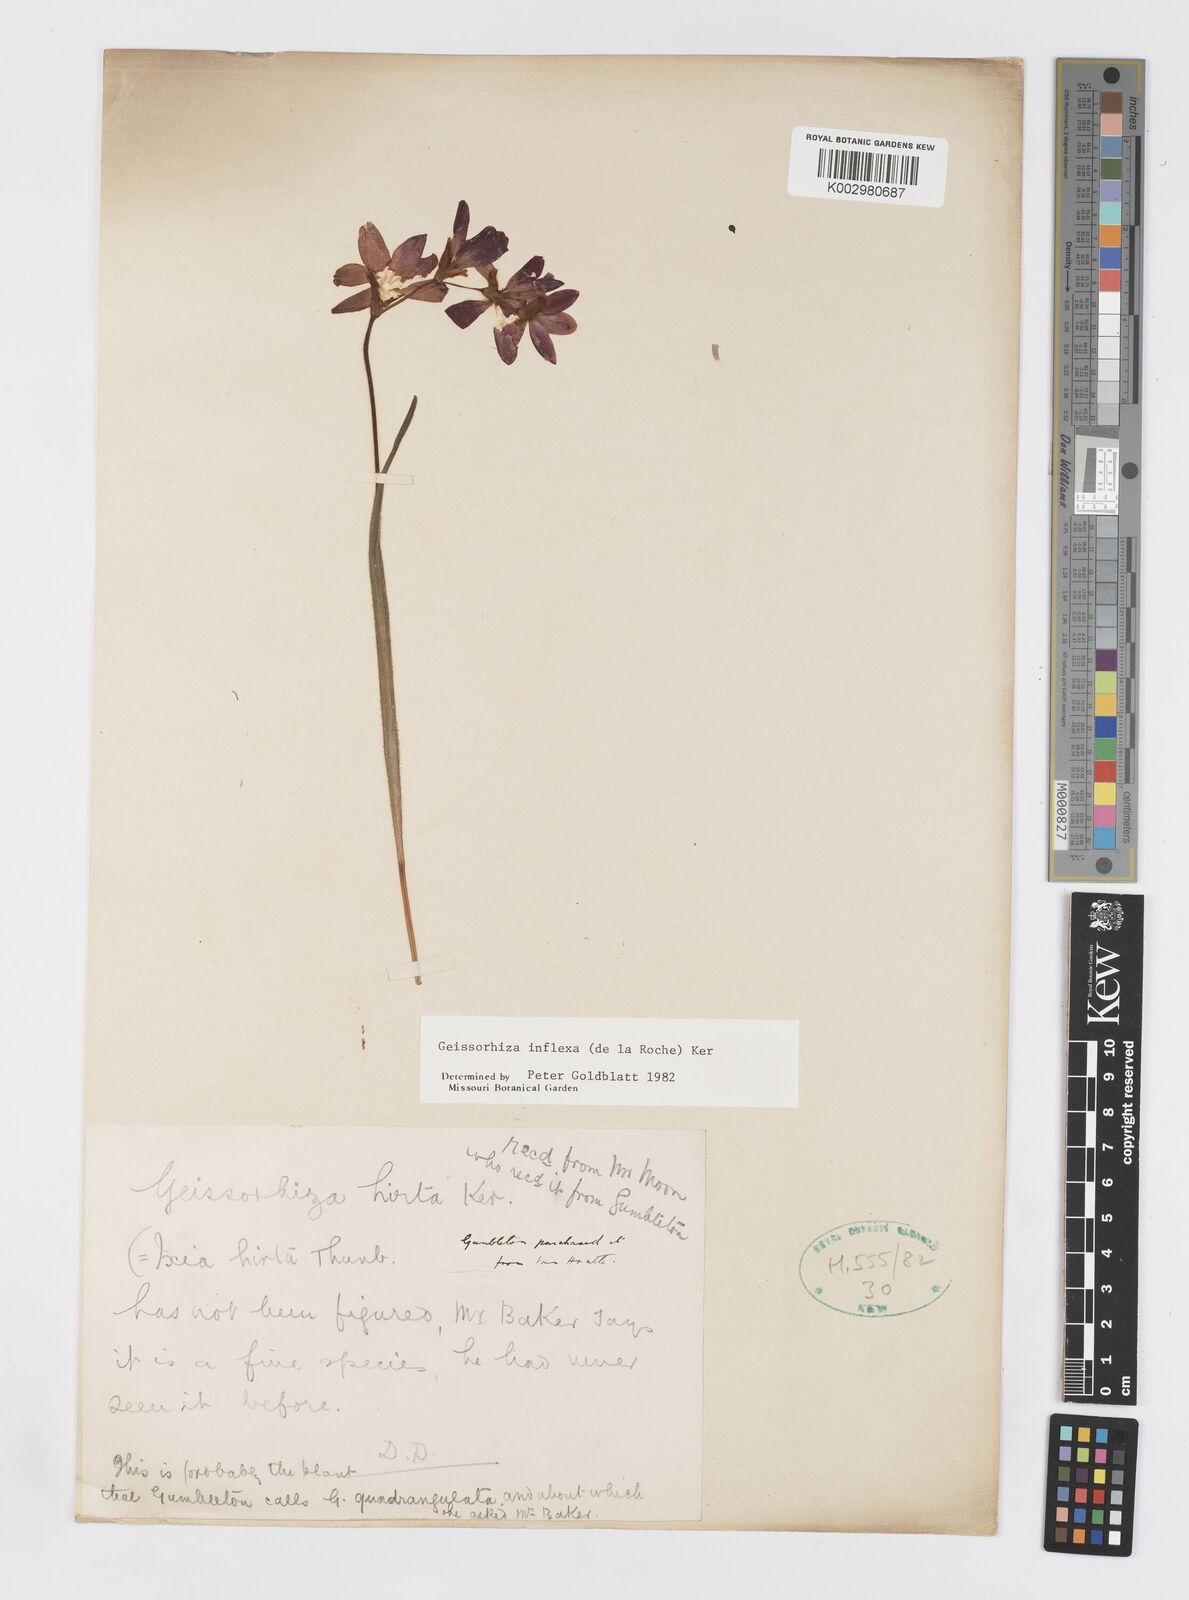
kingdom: Plantae
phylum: Tracheophyta
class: Liliopsida
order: Asparagales
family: Iridaceae
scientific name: Iridaceae
